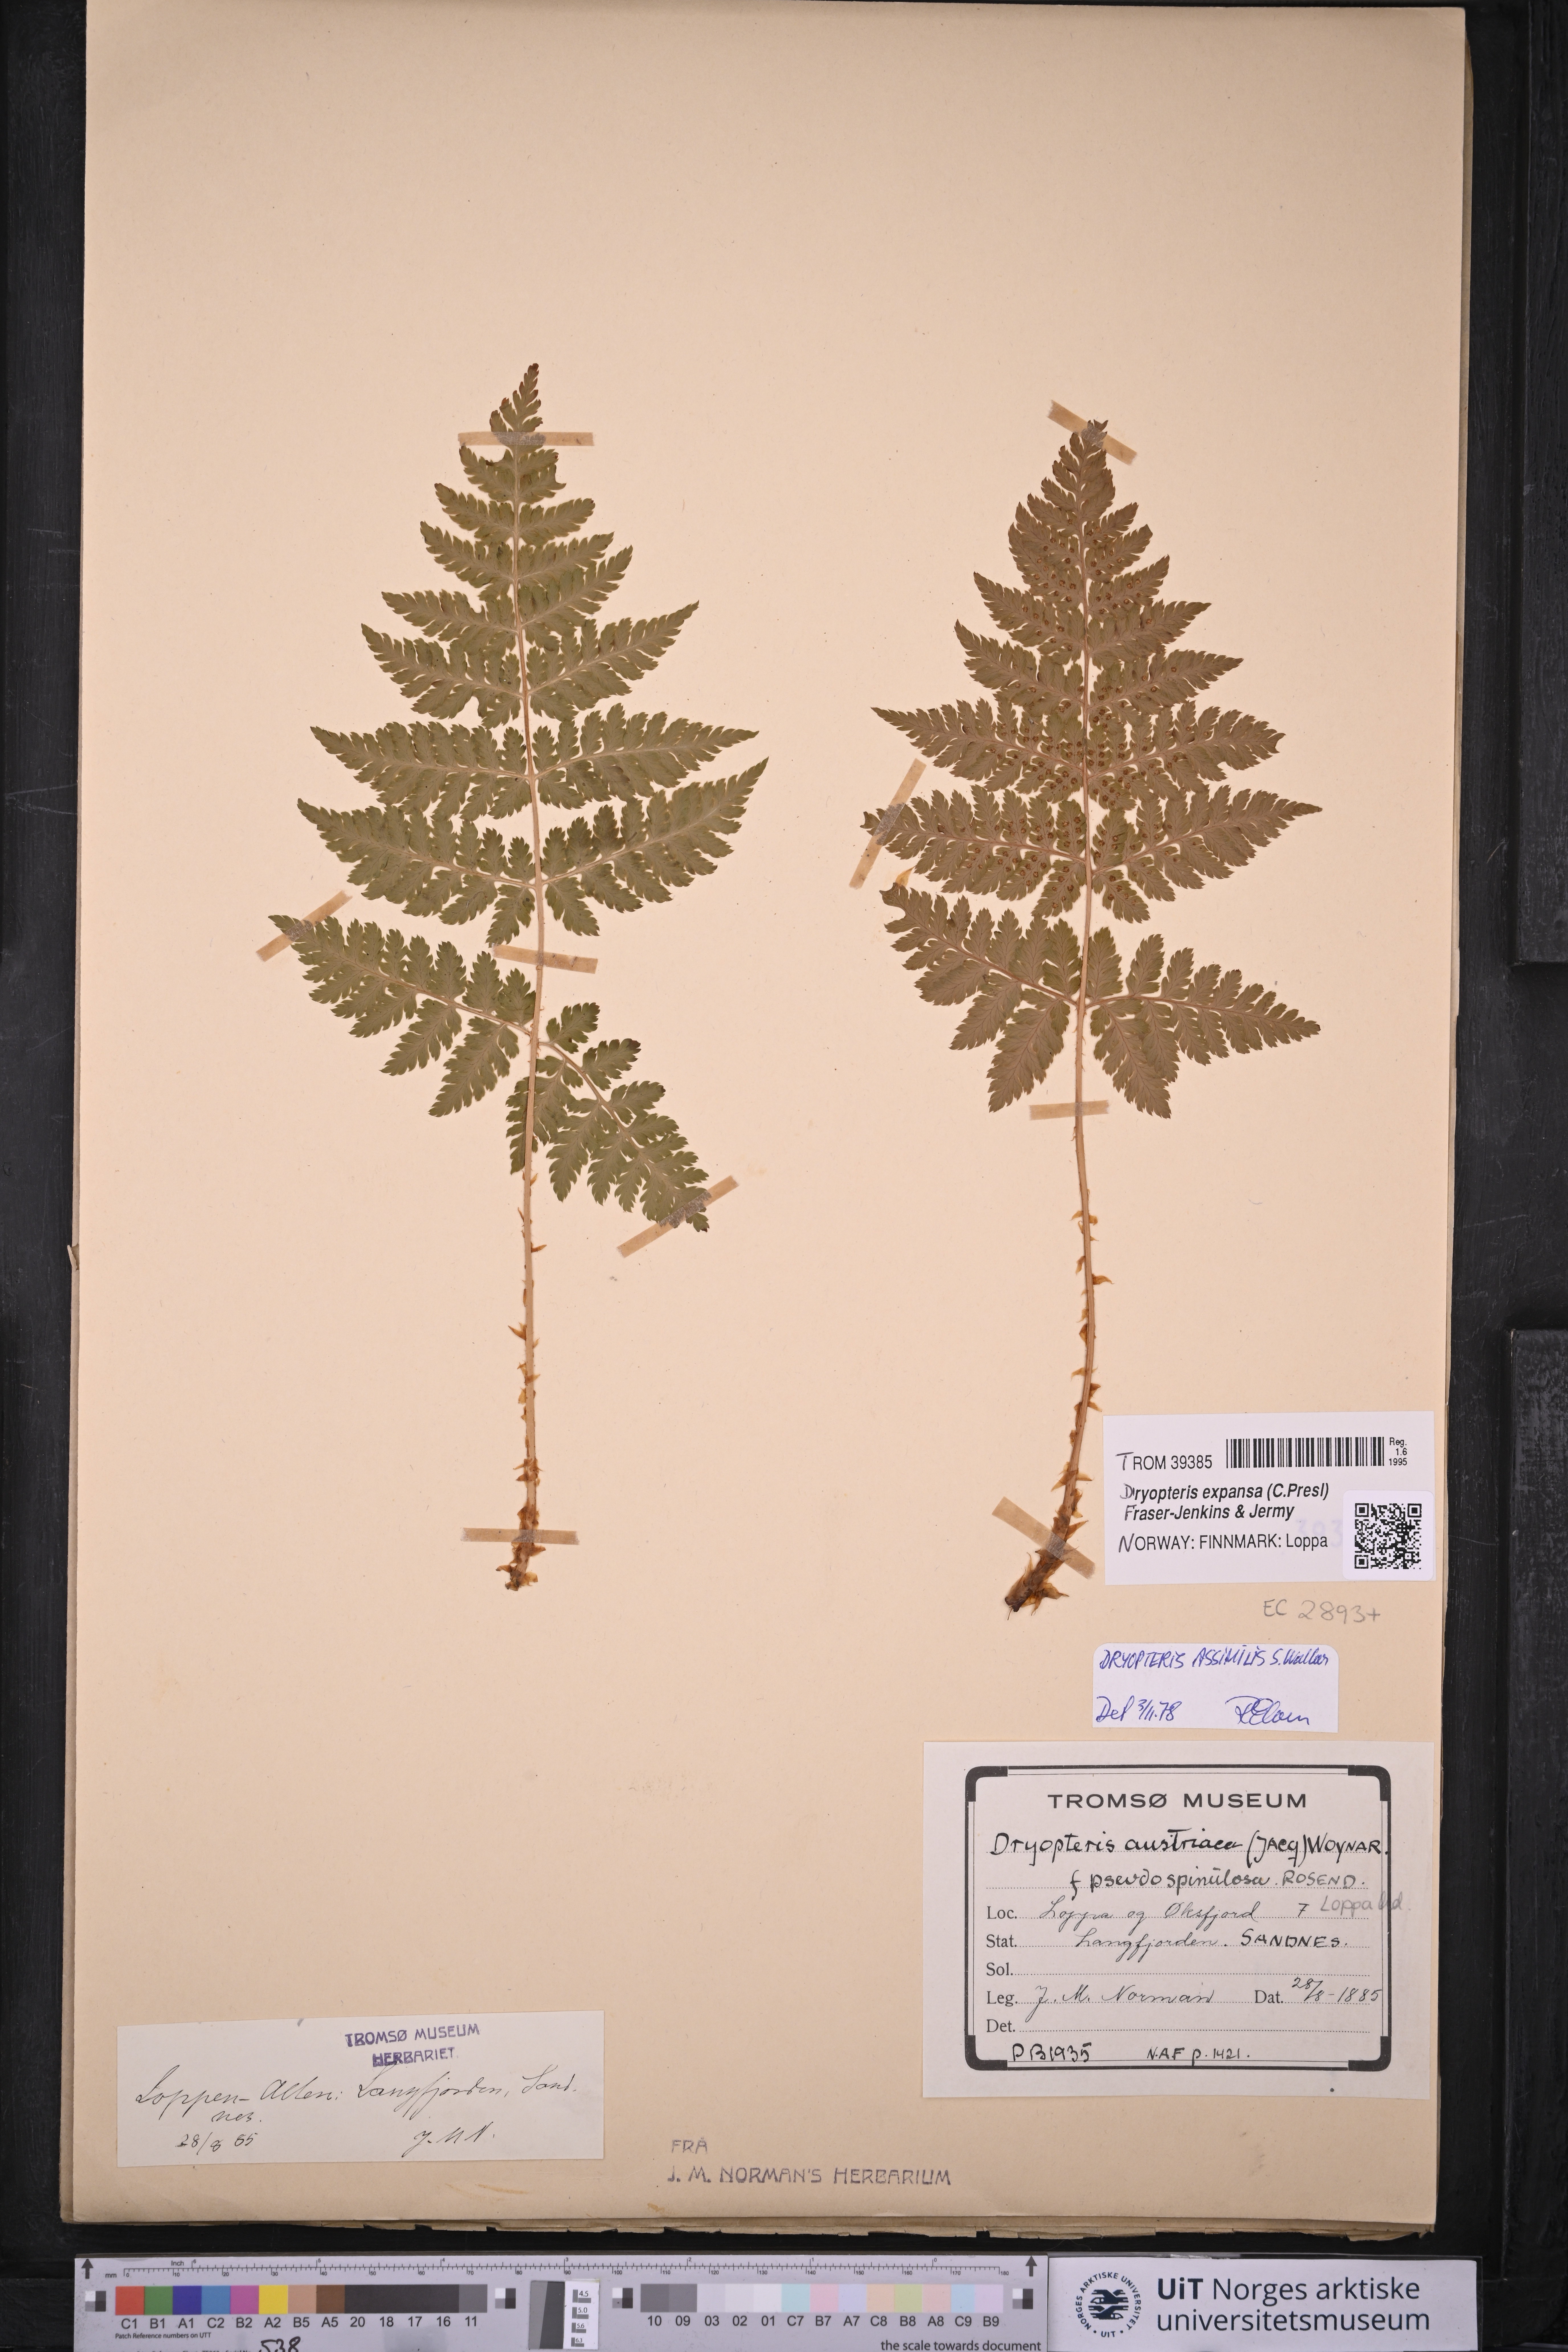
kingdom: Plantae
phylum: Tracheophyta
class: Polypodiopsida
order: Polypodiales
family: Dryopteridaceae
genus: Dryopteris
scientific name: Dryopteris expansa
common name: Northern buckler fern
